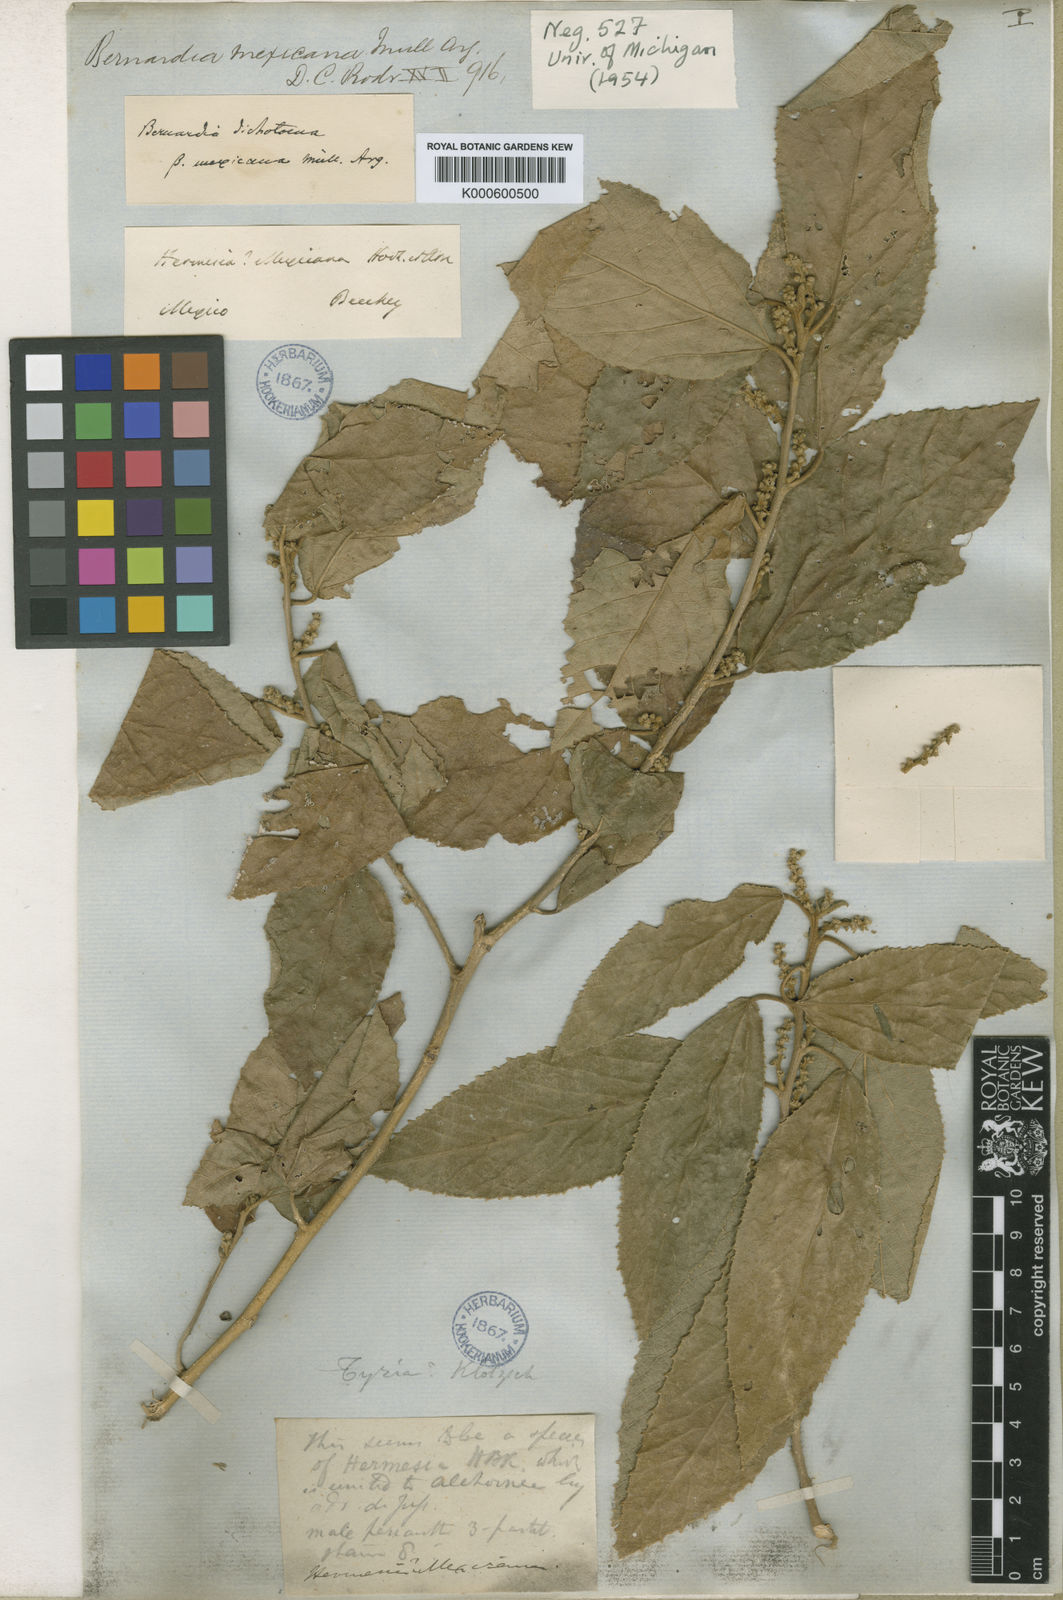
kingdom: Plantae
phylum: Tracheophyta
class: Magnoliopsida
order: Malpighiales
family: Euphorbiaceae
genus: Bernardia
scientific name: Bernardia
